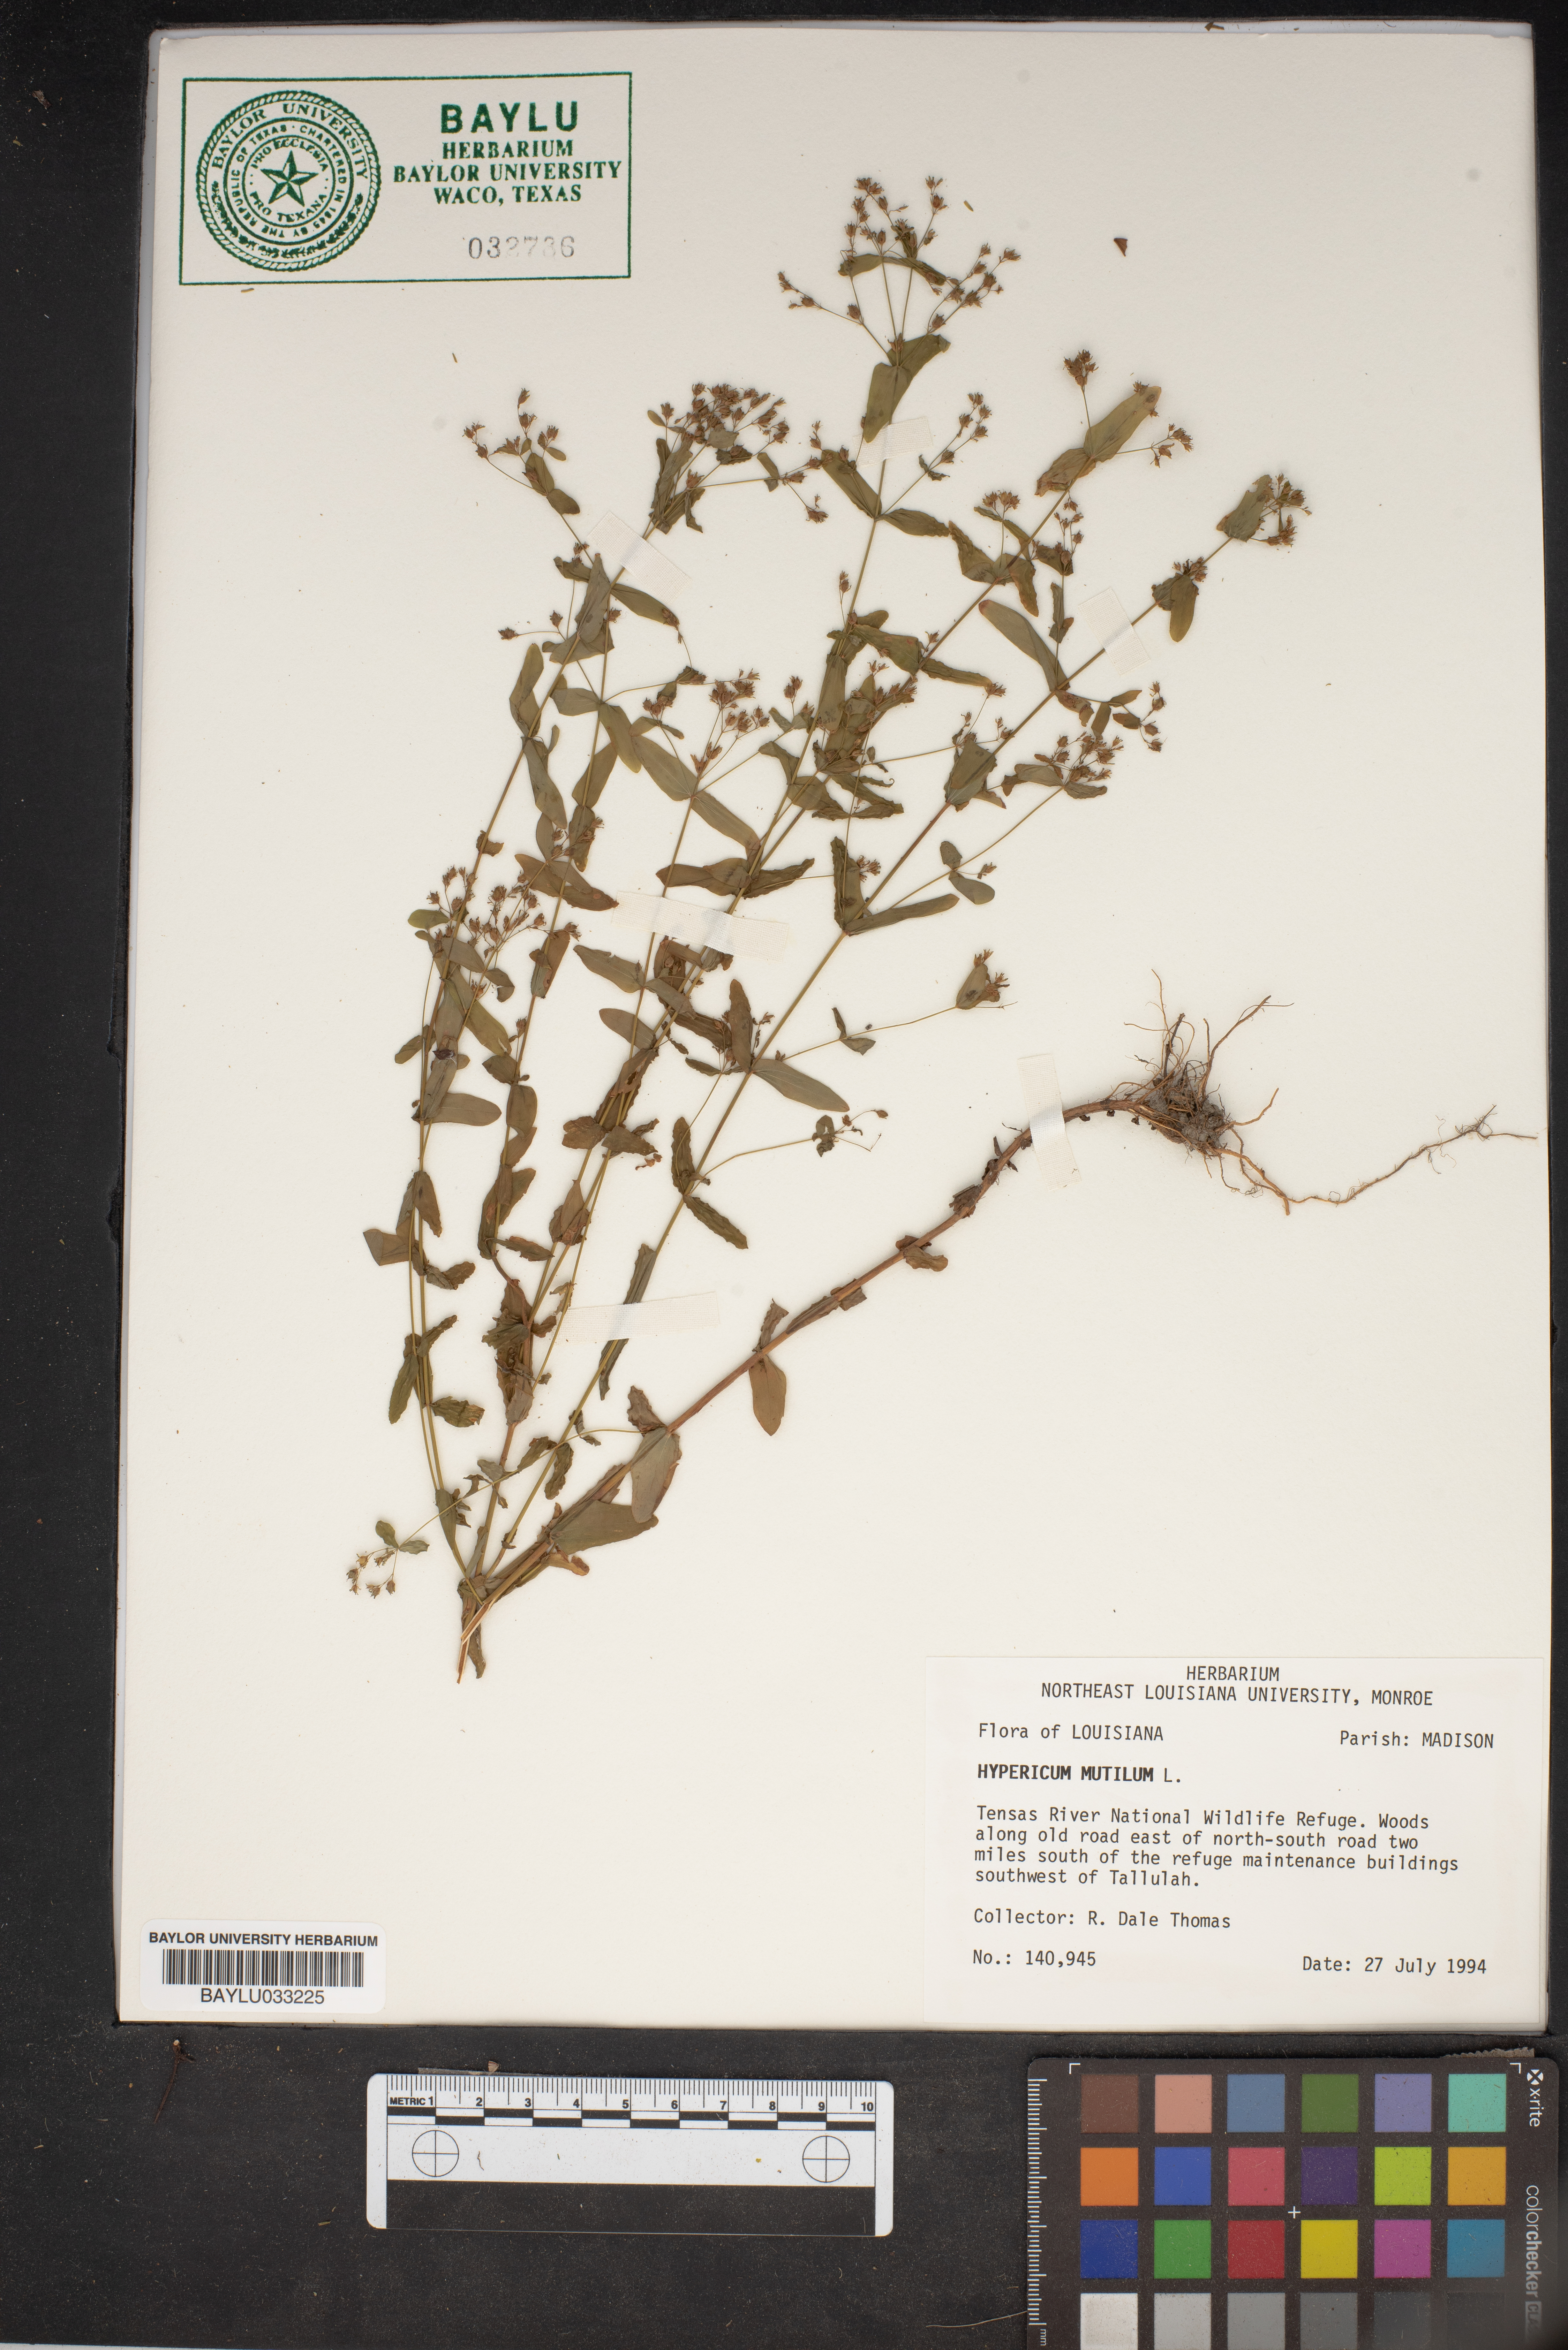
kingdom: Plantae
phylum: Tracheophyta
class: Magnoliopsida
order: Malpighiales
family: Hypericaceae
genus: Hypericum
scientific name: Hypericum mutilum
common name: Dwarf st. john's-wort
